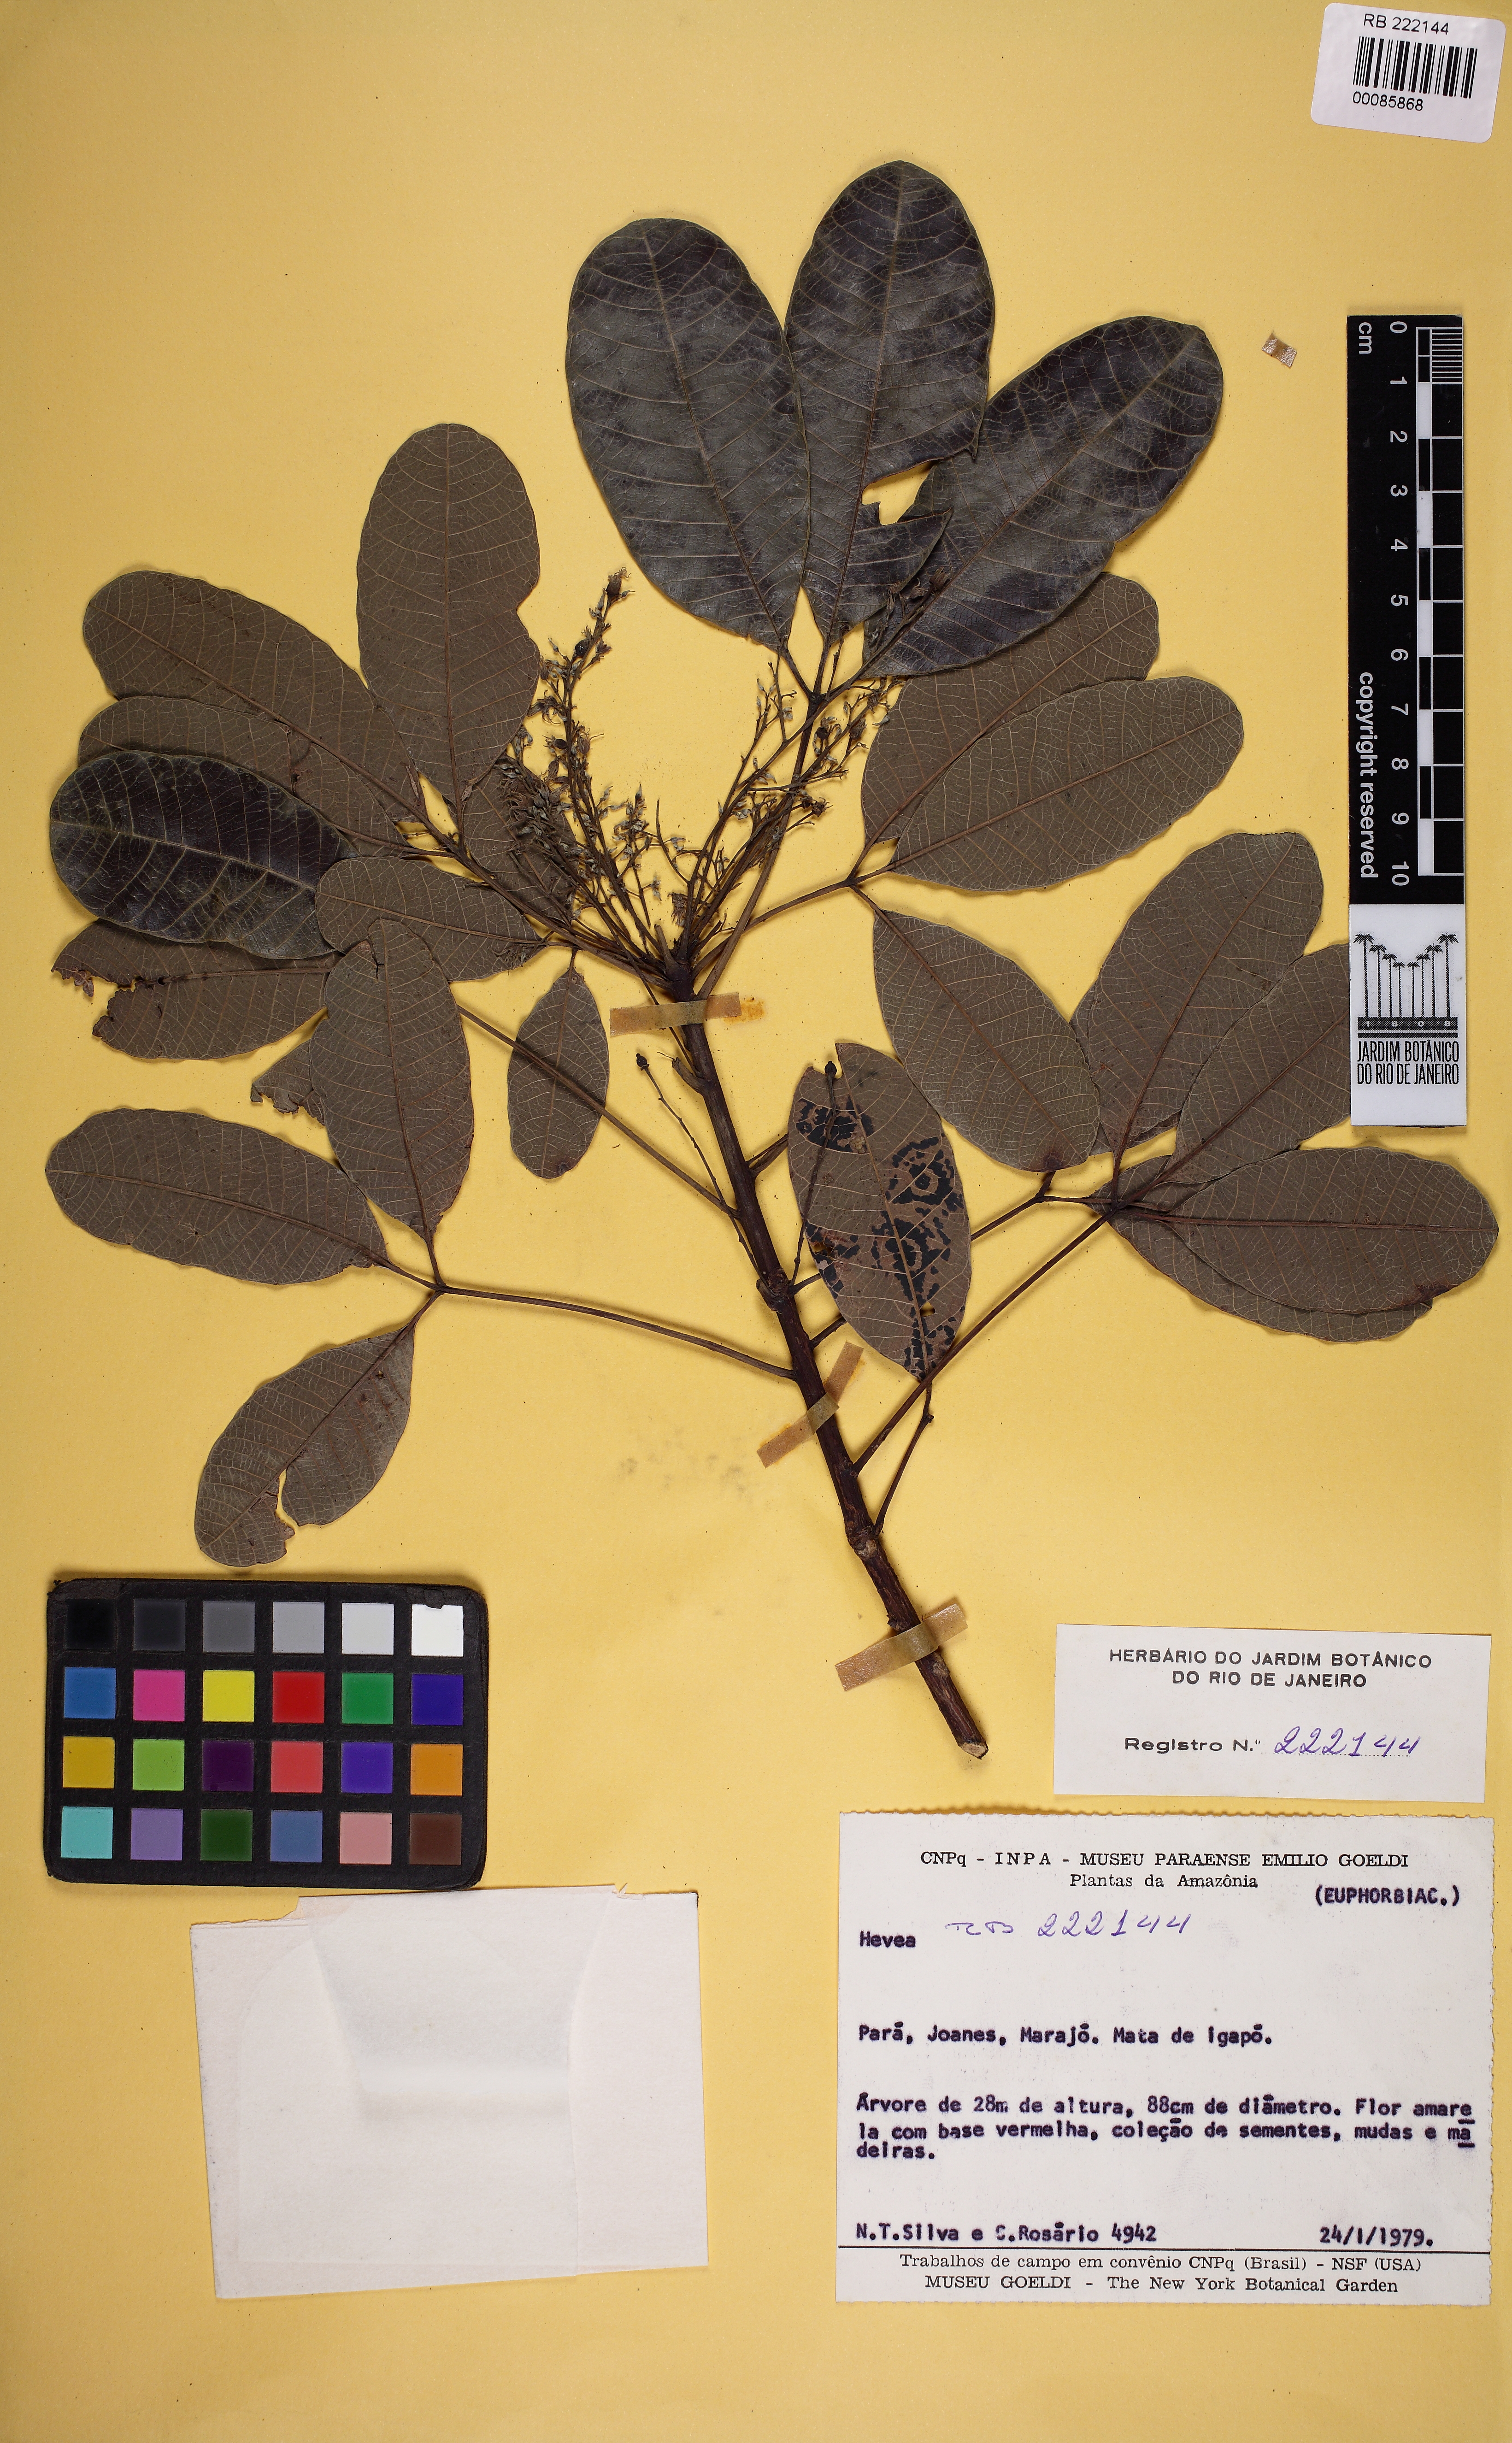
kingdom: Plantae
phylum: Tracheophyta
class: Magnoliopsida
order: Malpighiales
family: Euphorbiaceae
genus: Hevea
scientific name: Hevea camargoana
